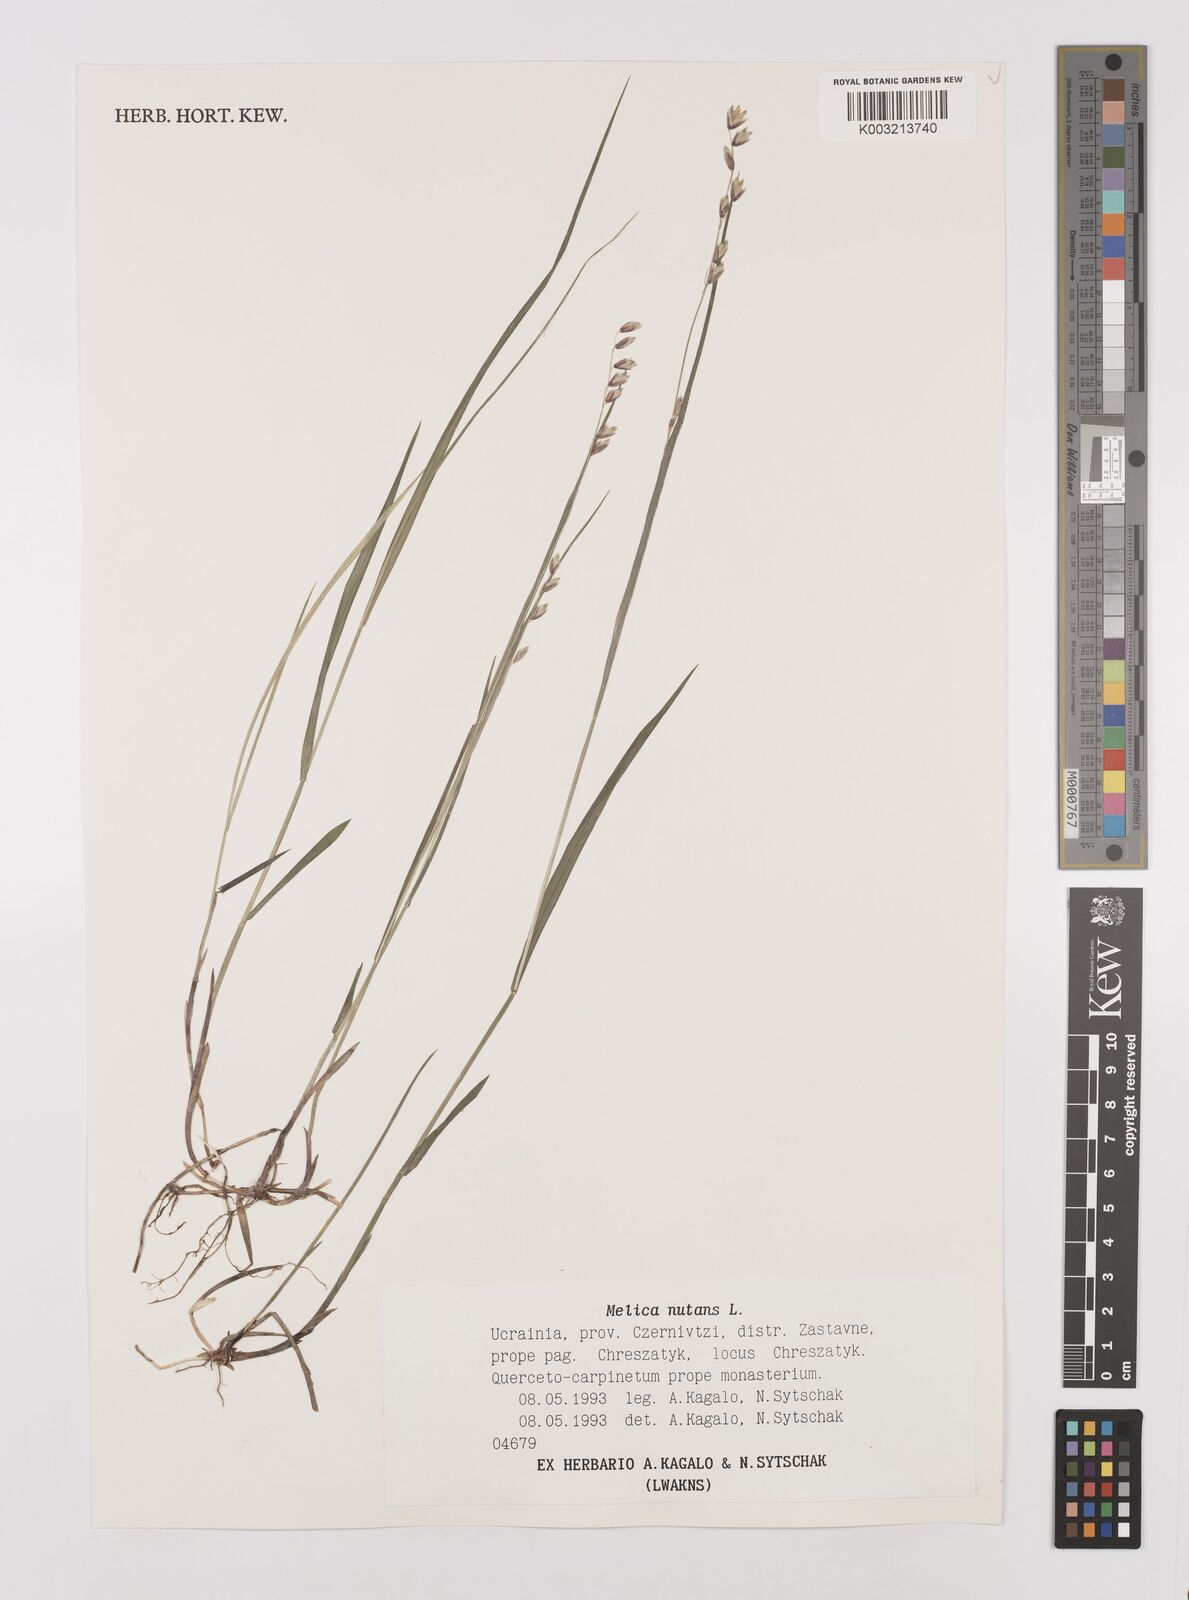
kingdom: Plantae
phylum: Tracheophyta
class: Liliopsida
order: Poales
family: Poaceae
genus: Melica
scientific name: Melica
